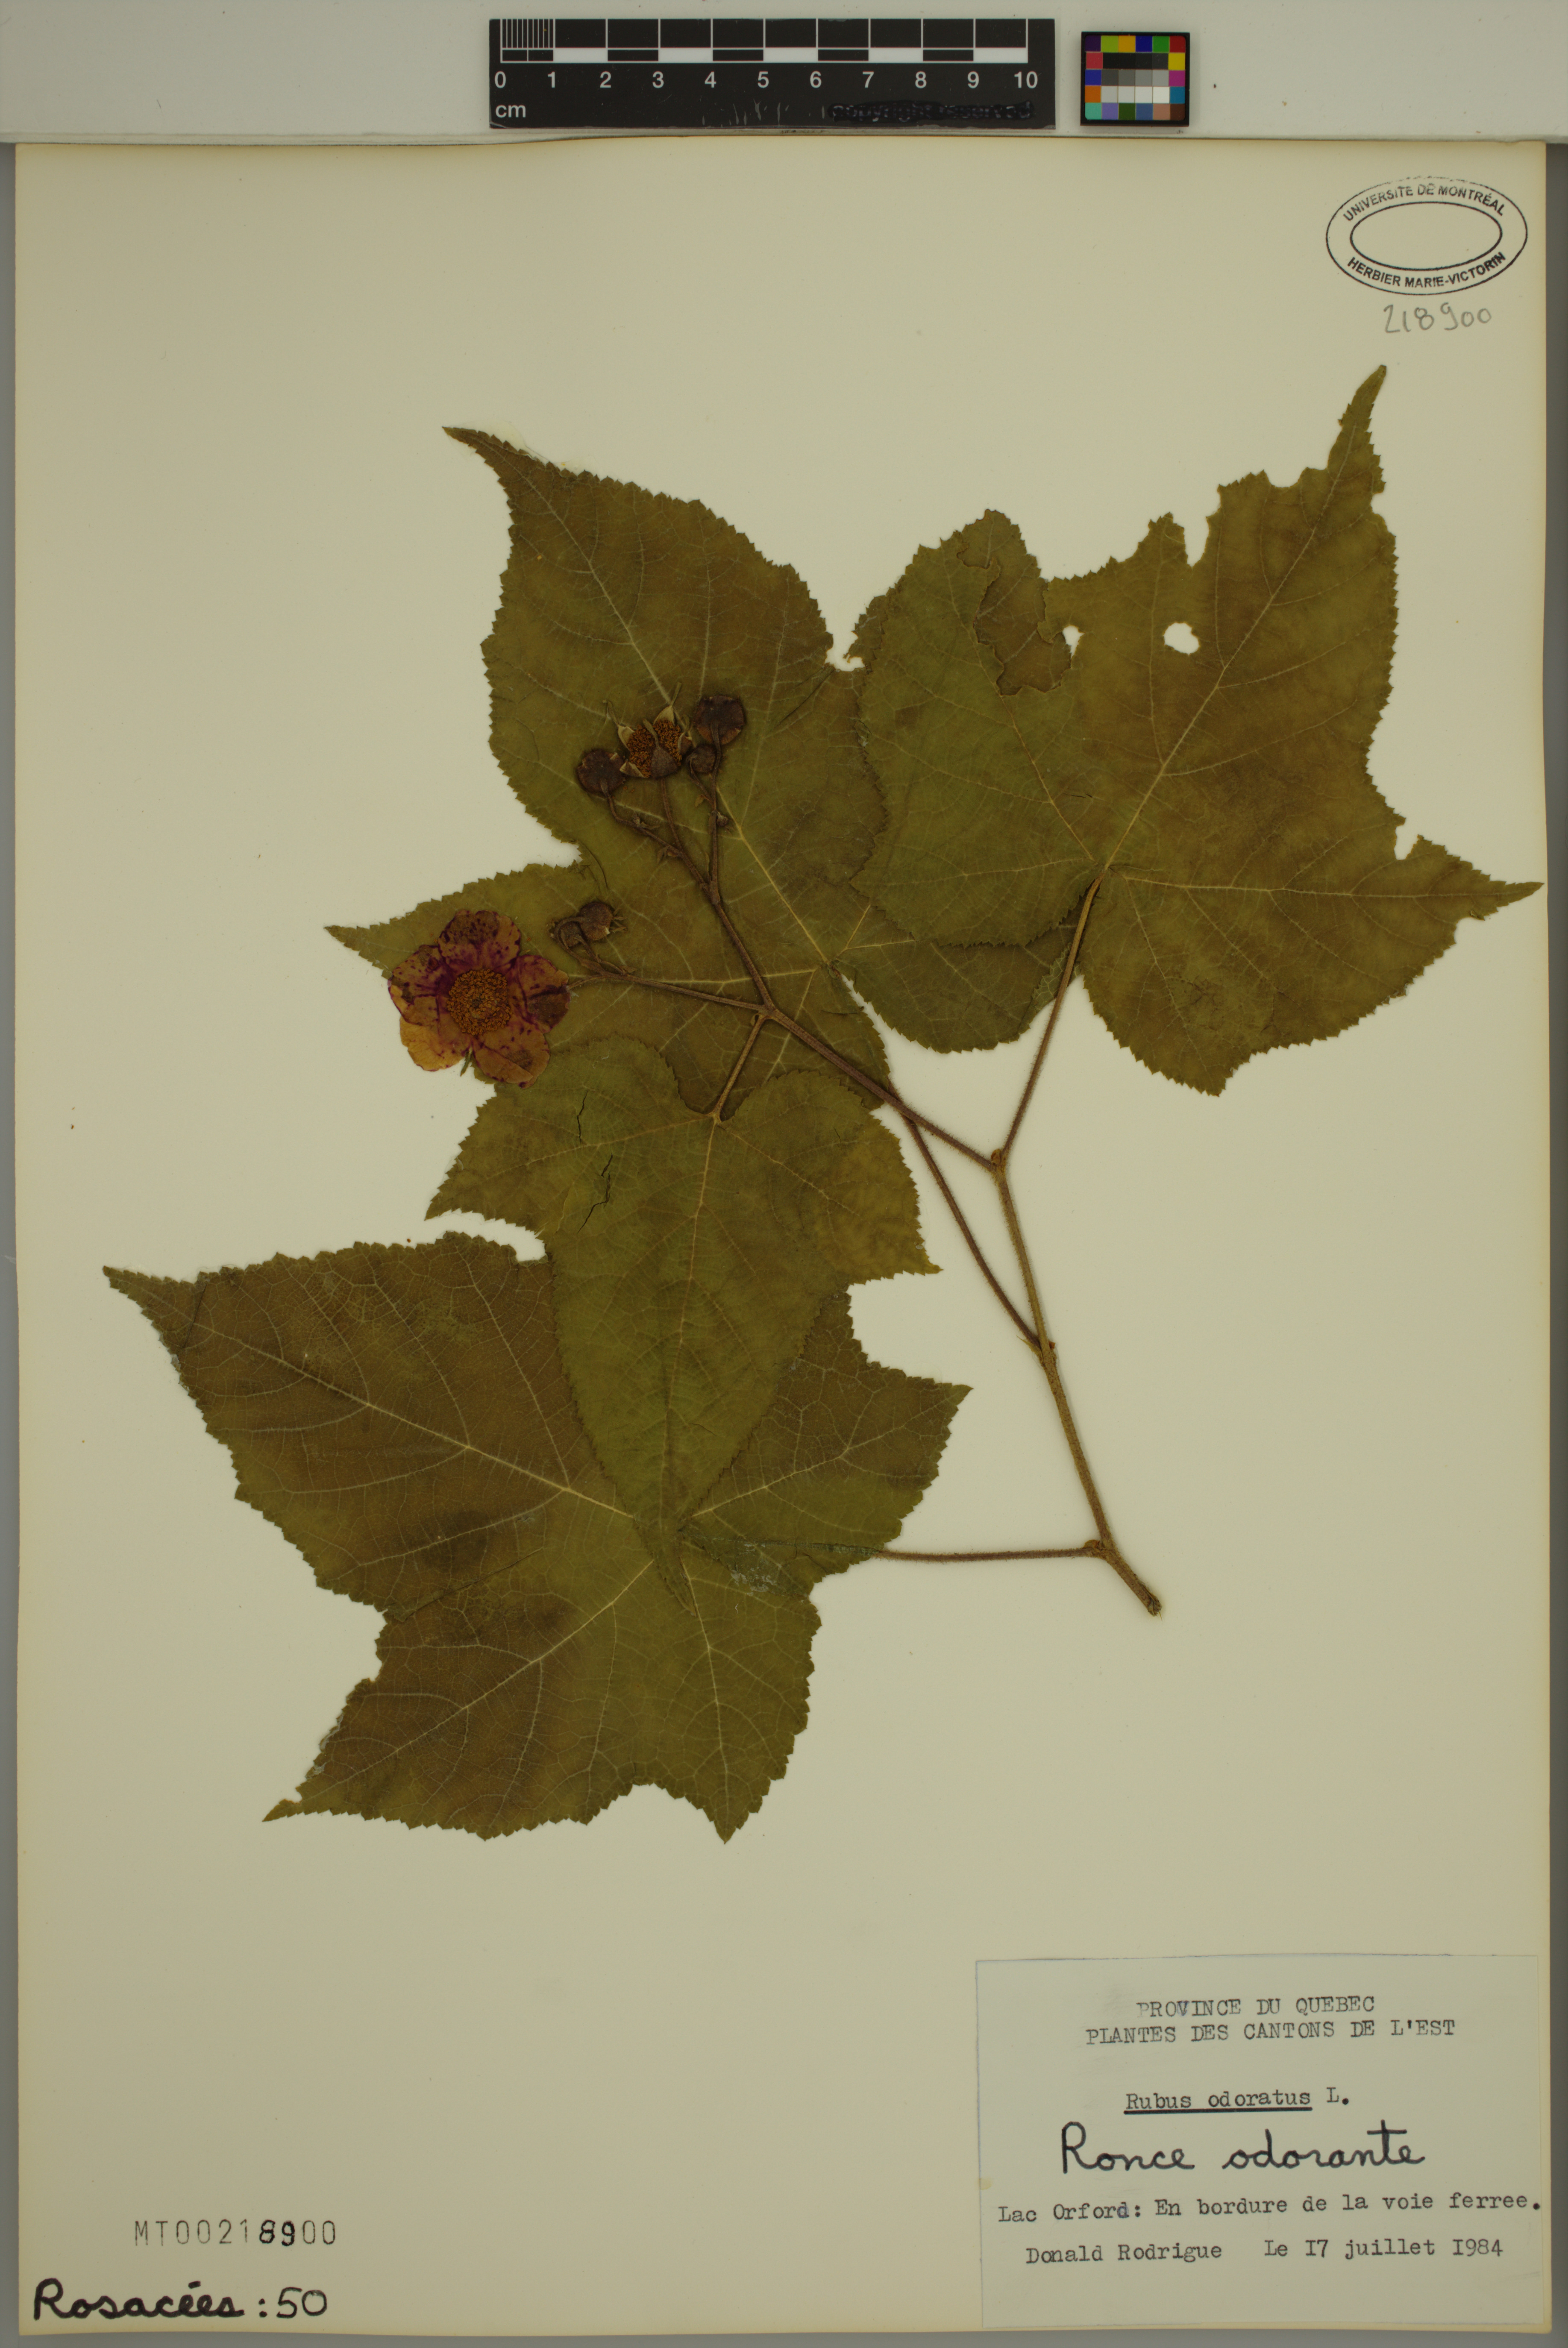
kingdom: Plantae
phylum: Tracheophyta
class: Magnoliopsida
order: Rosales
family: Rosaceae
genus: Rubus
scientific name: Rubus odoratus
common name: Purple-flowered raspberry
